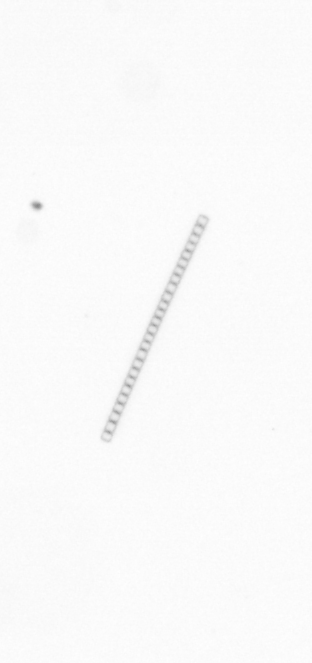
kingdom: Chromista
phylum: Ochrophyta
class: Bacillariophyceae
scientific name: Bacillariophyceae
